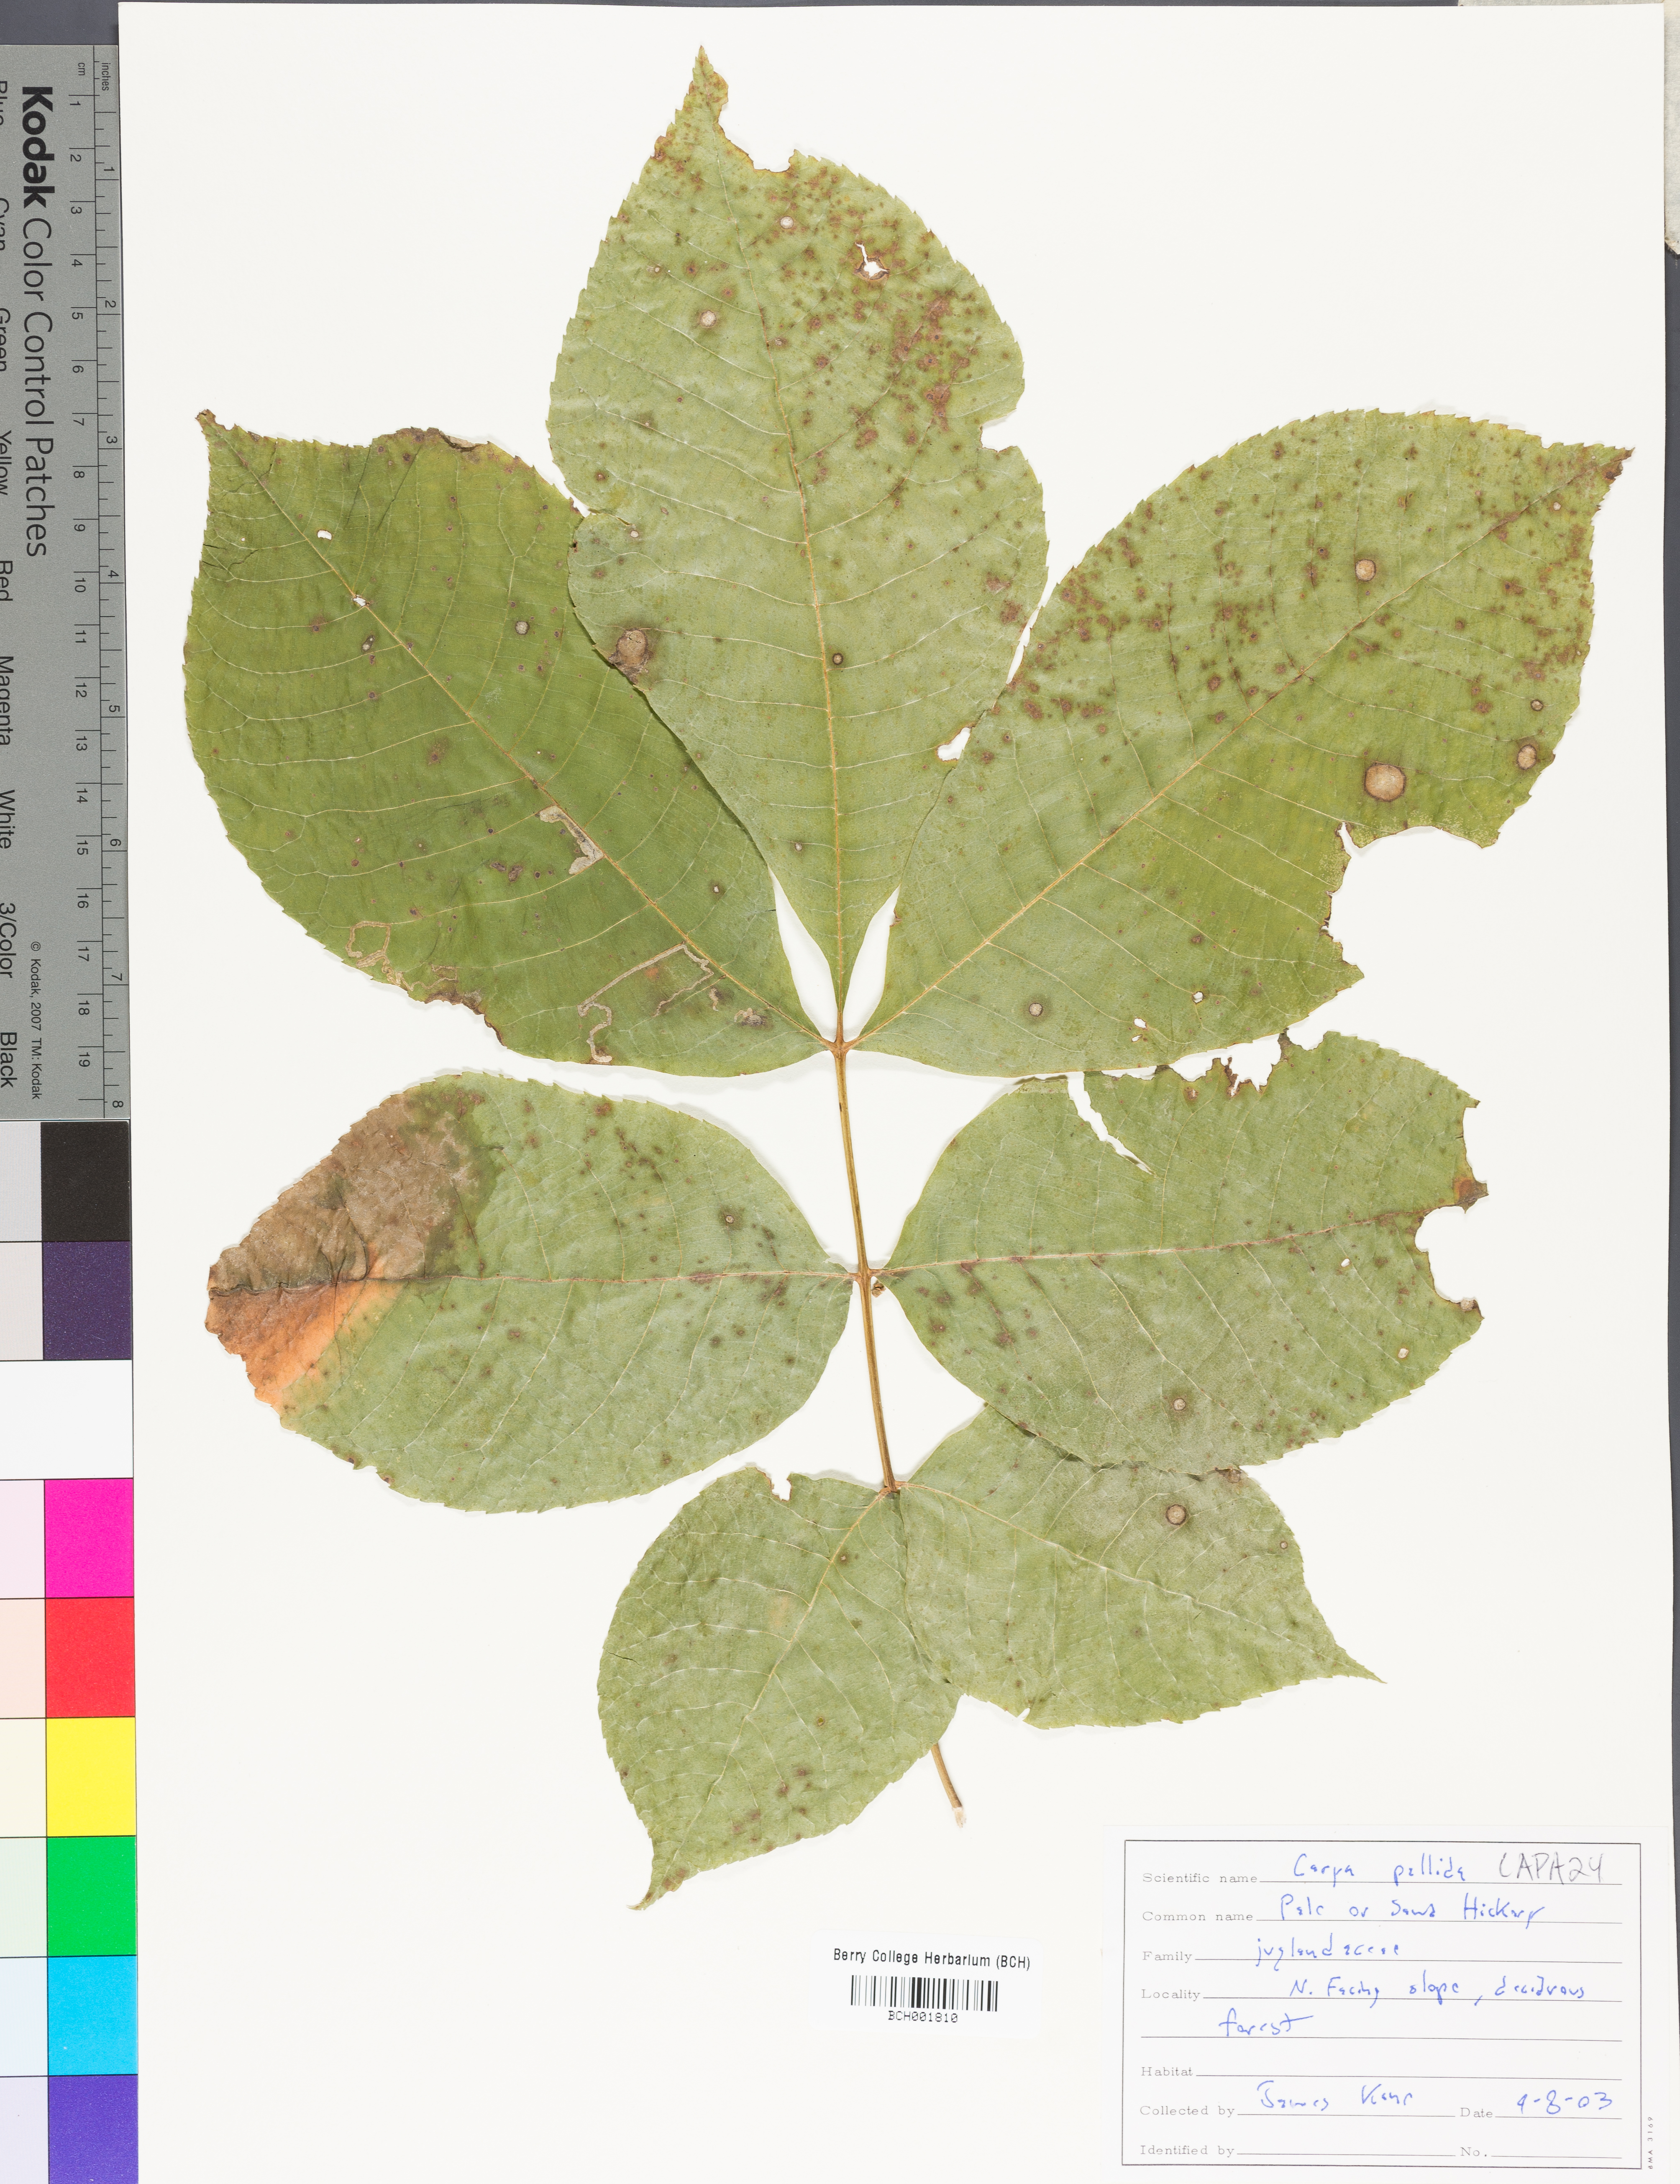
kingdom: Plantae
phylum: Tracheophyta
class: Magnoliopsida
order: Fagales
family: Juglandaceae
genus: Carya
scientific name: Carya pallida
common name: Sand hickory
